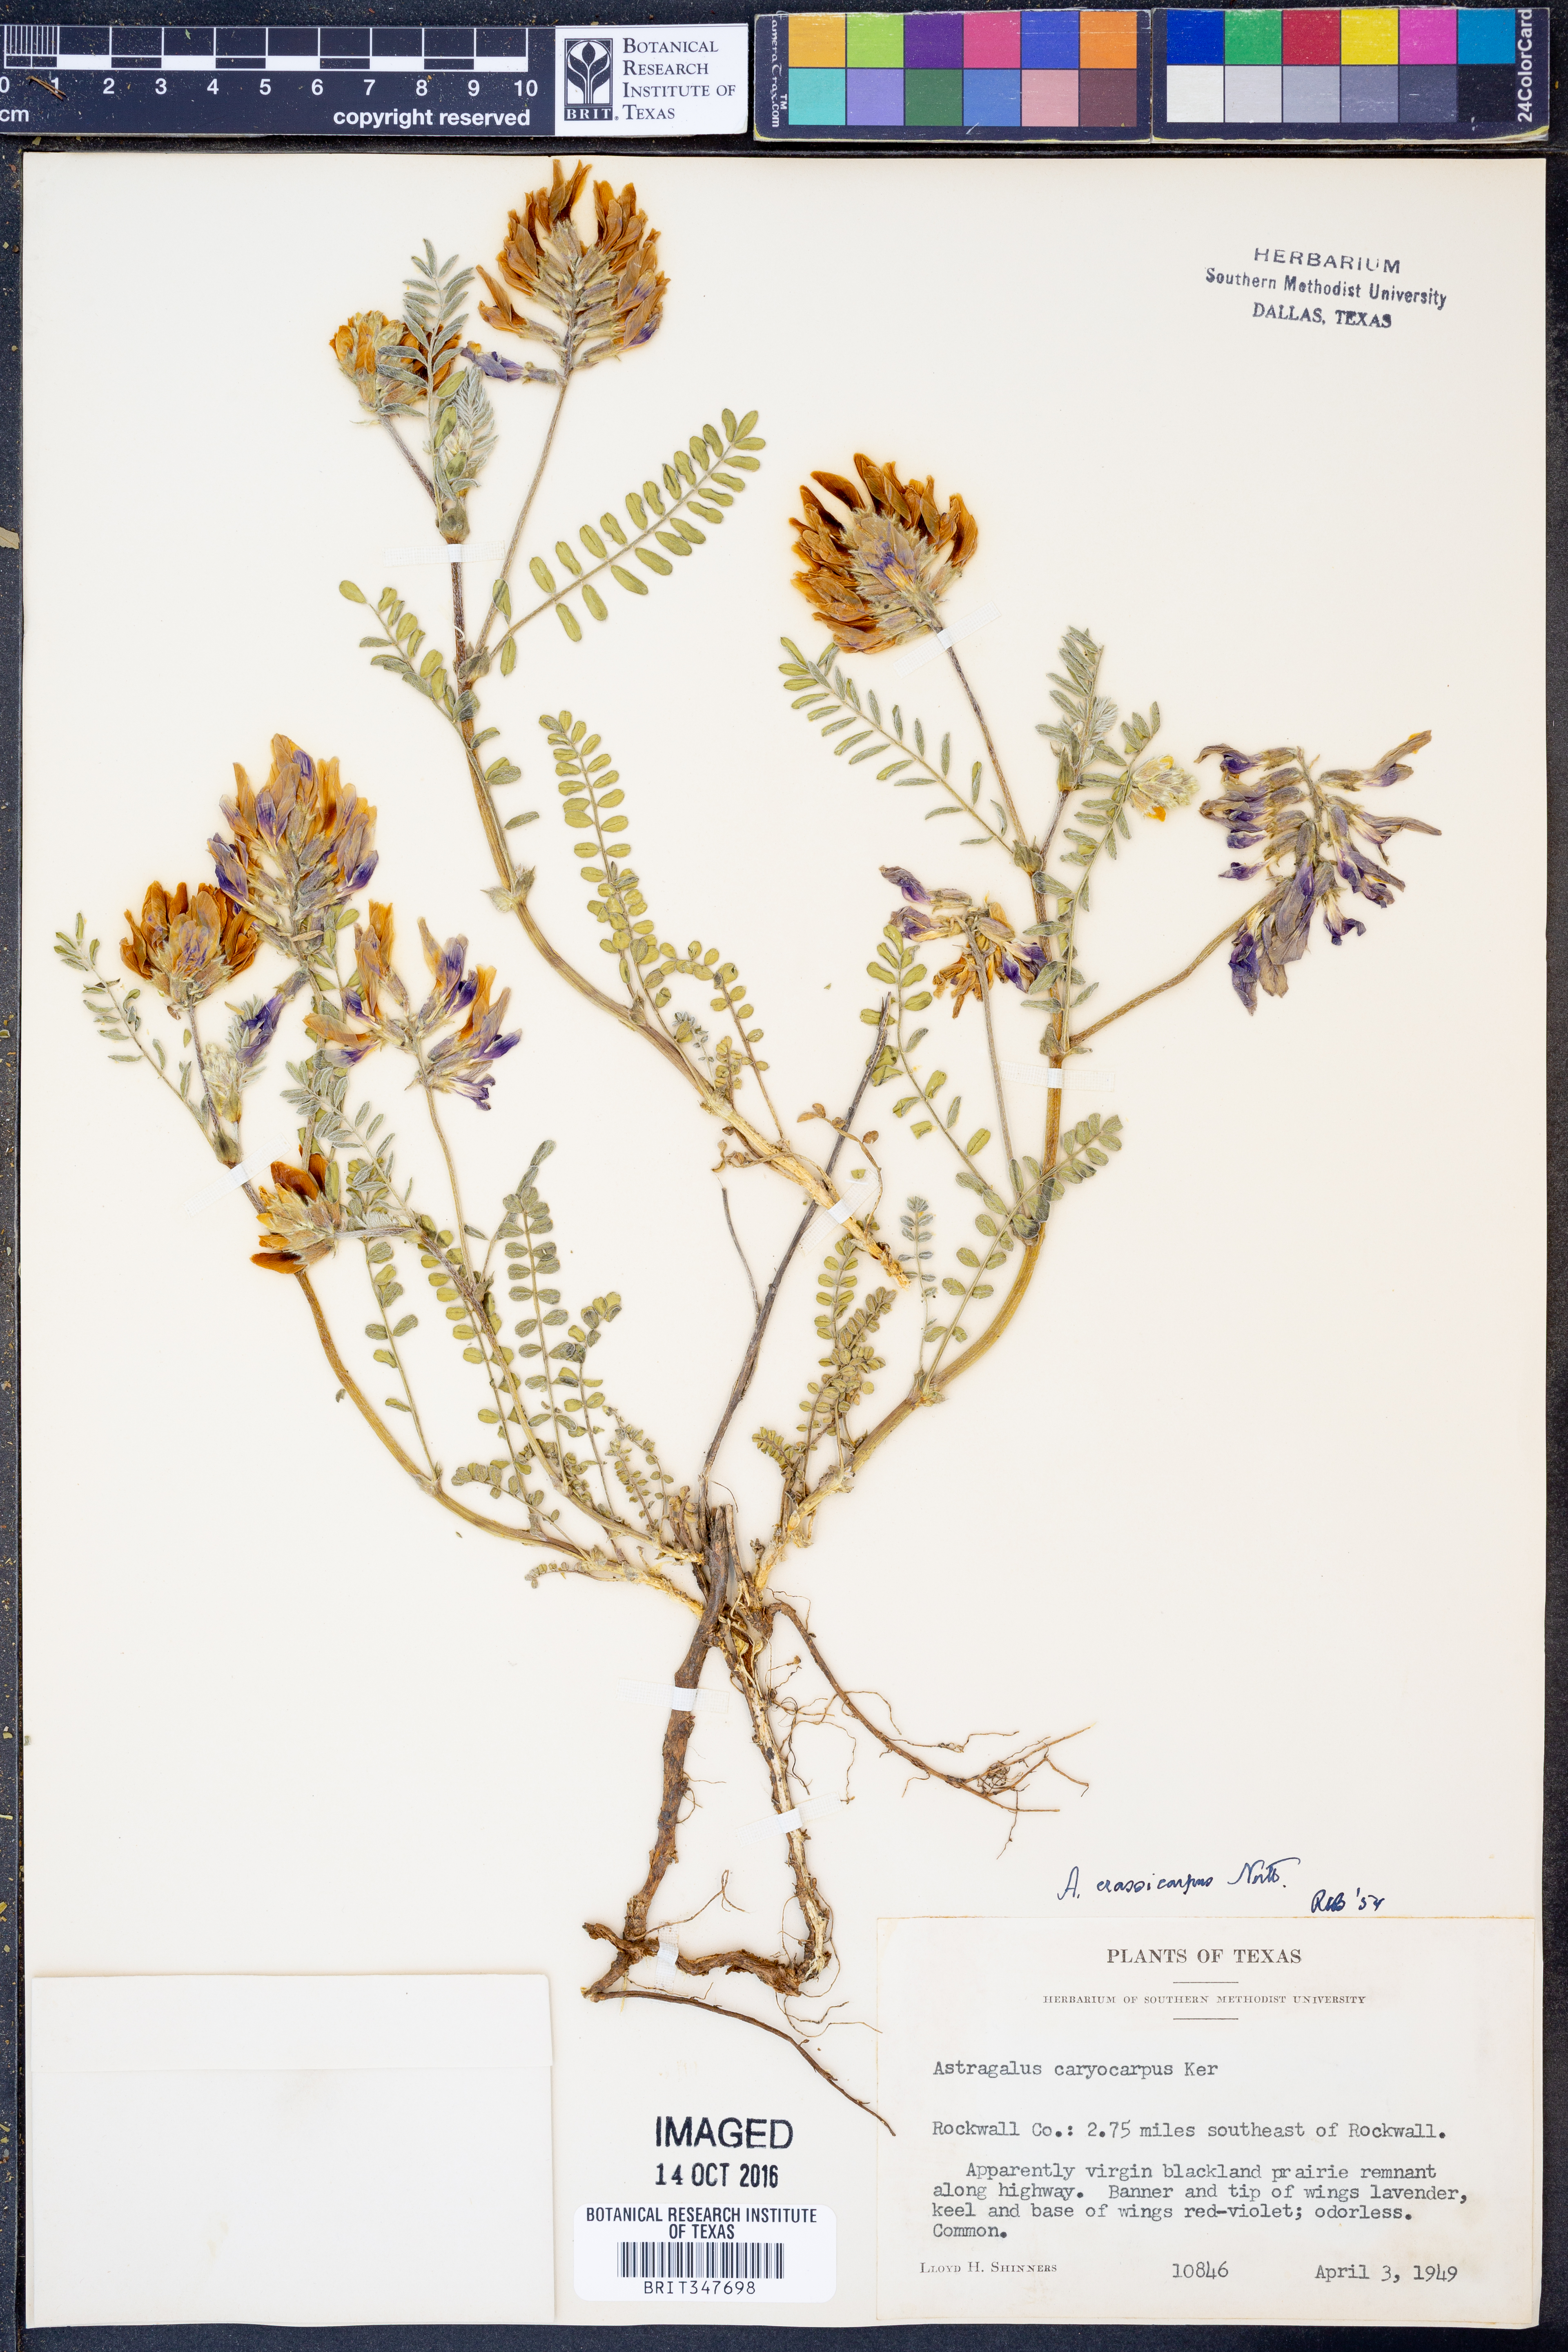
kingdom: Plantae
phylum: Tracheophyta
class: Magnoliopsida
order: Fabales
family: Fabaceae
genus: Astragalus
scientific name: Astragalus crassicarpus
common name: Ground-plum milk-vetch
